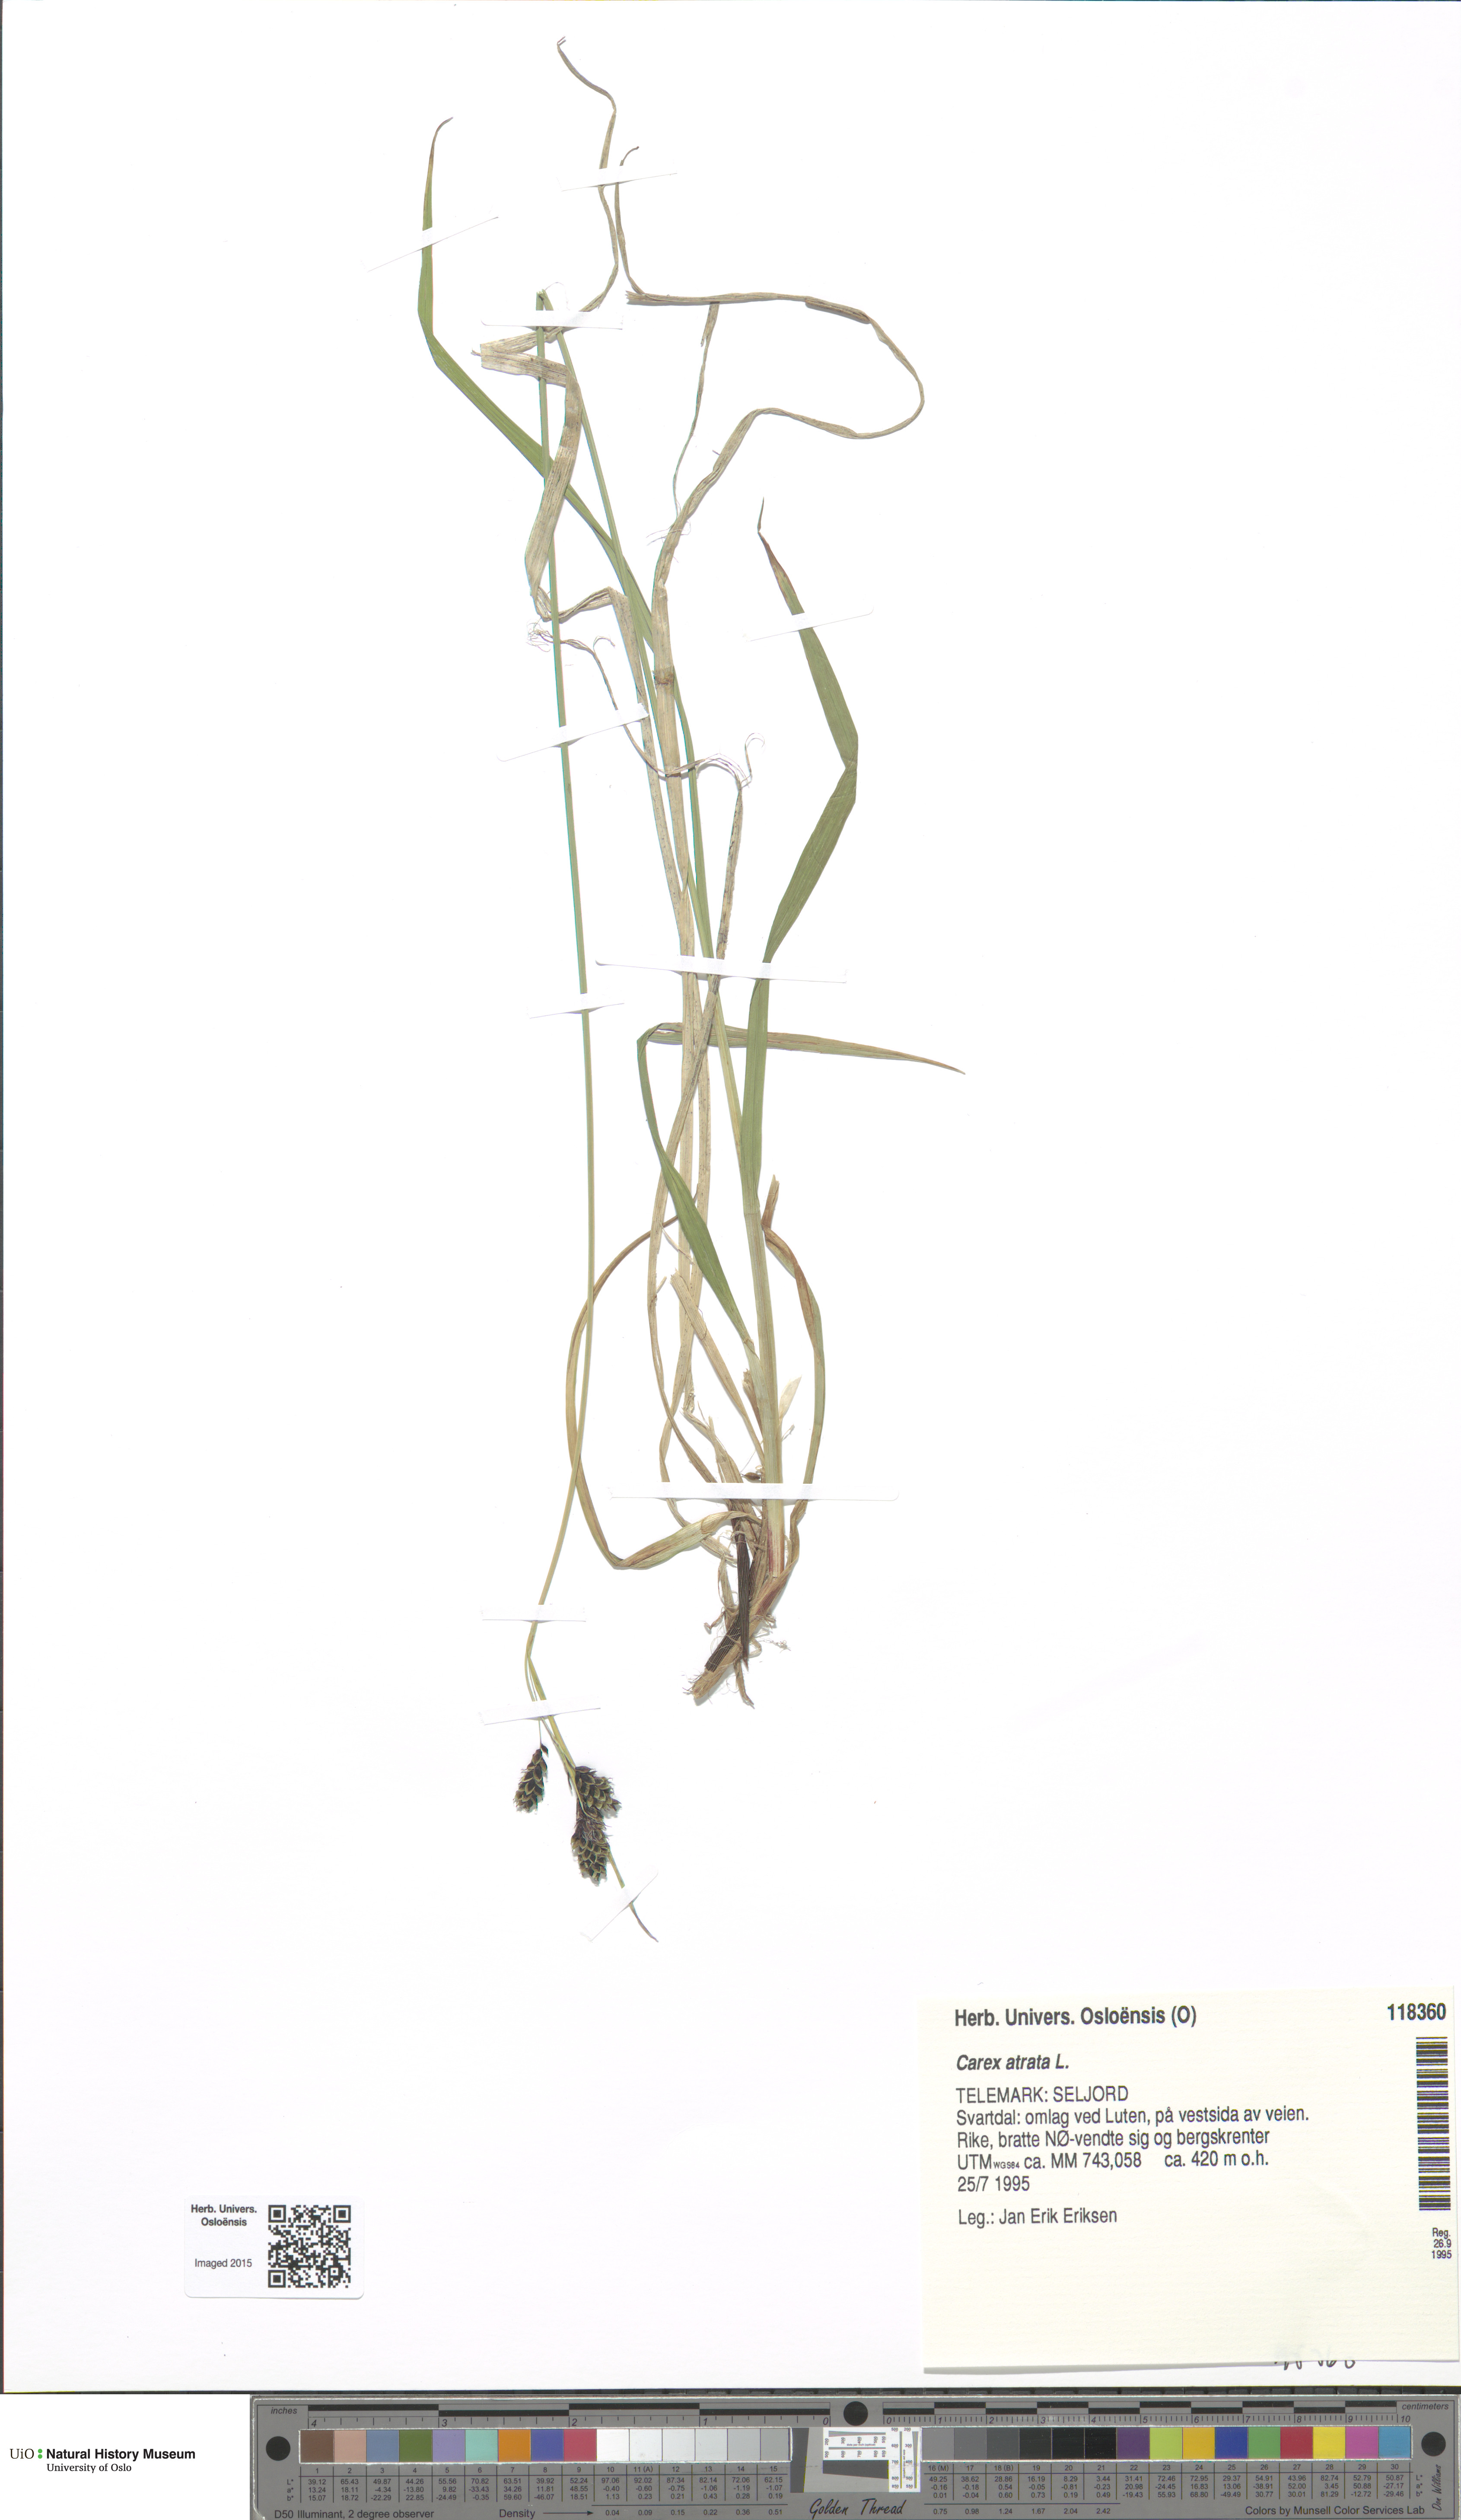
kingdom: Plantae
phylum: Tracheophyta
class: Liliopsida
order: Poales
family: Cyperaceae
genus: Carex
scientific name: Carex atrata
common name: Black alpine sedge
